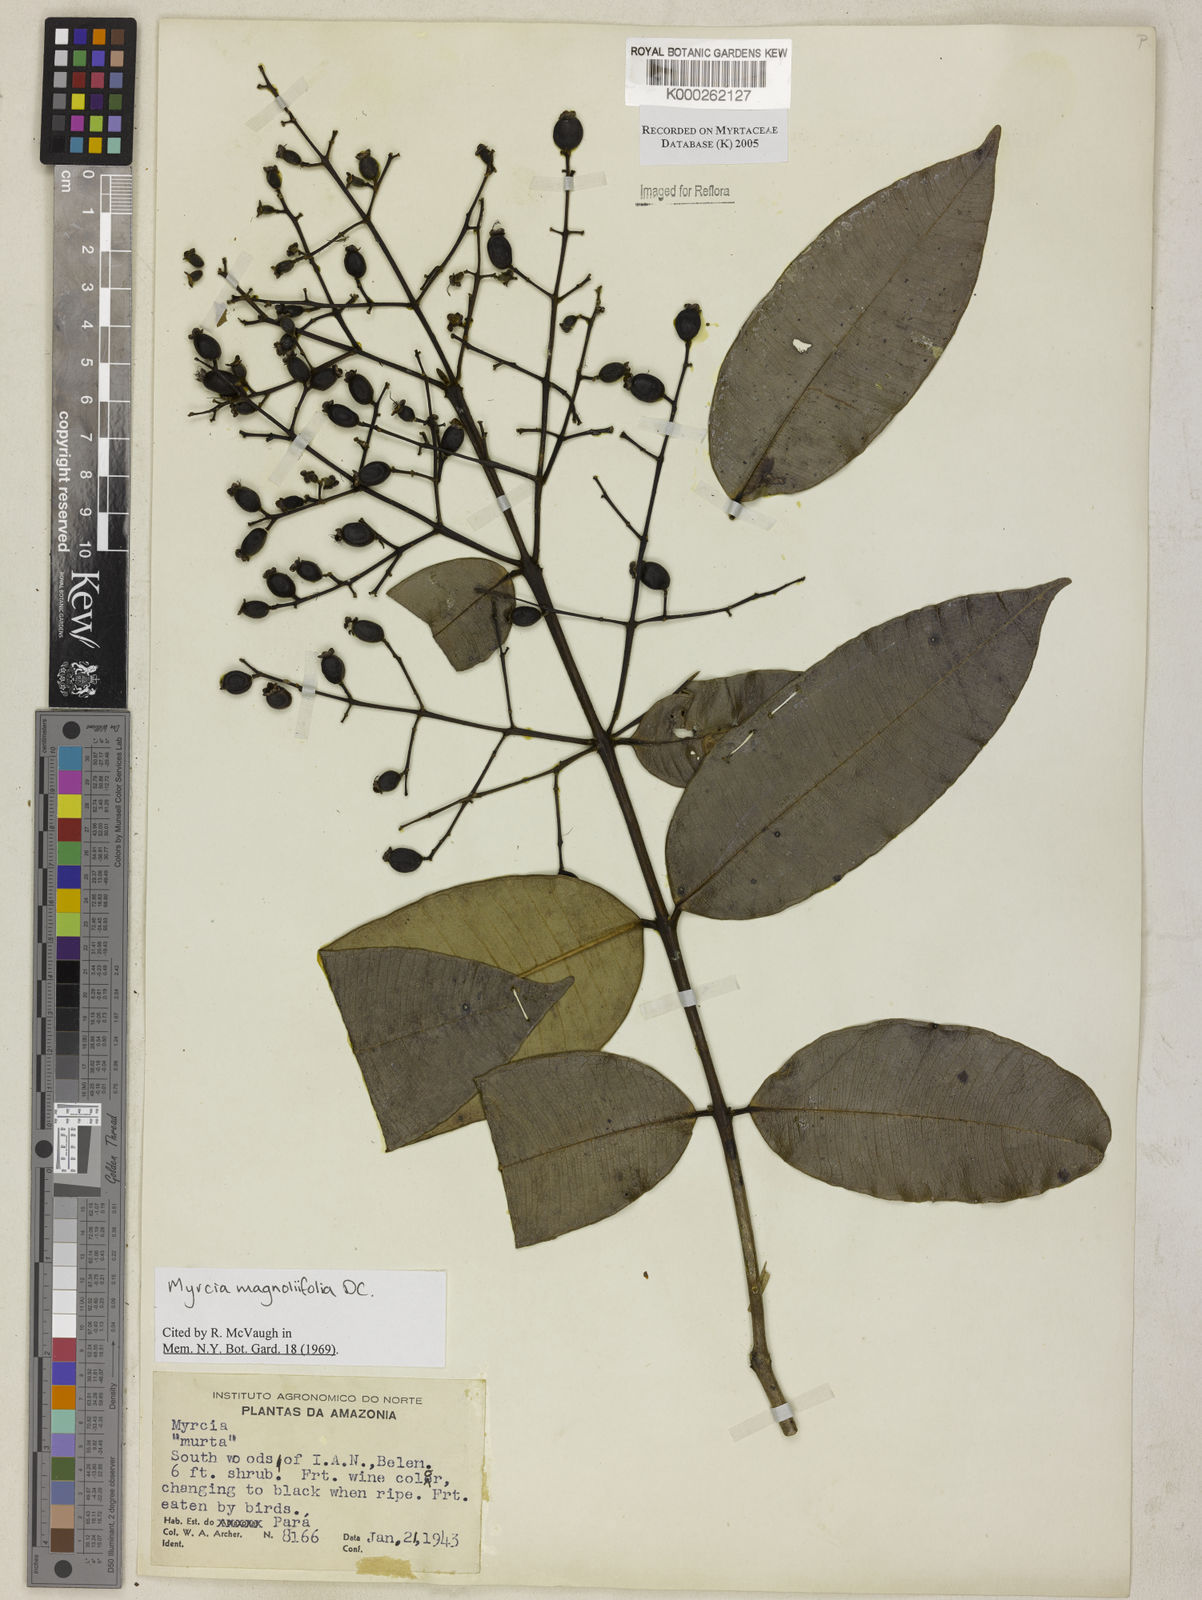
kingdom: Plantae
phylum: Tracheophyta
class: Magnoliopsida
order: Myrtales
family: Myrtaceae
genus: Myrcia
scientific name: Myrcia splendens
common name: Surinam cherry
